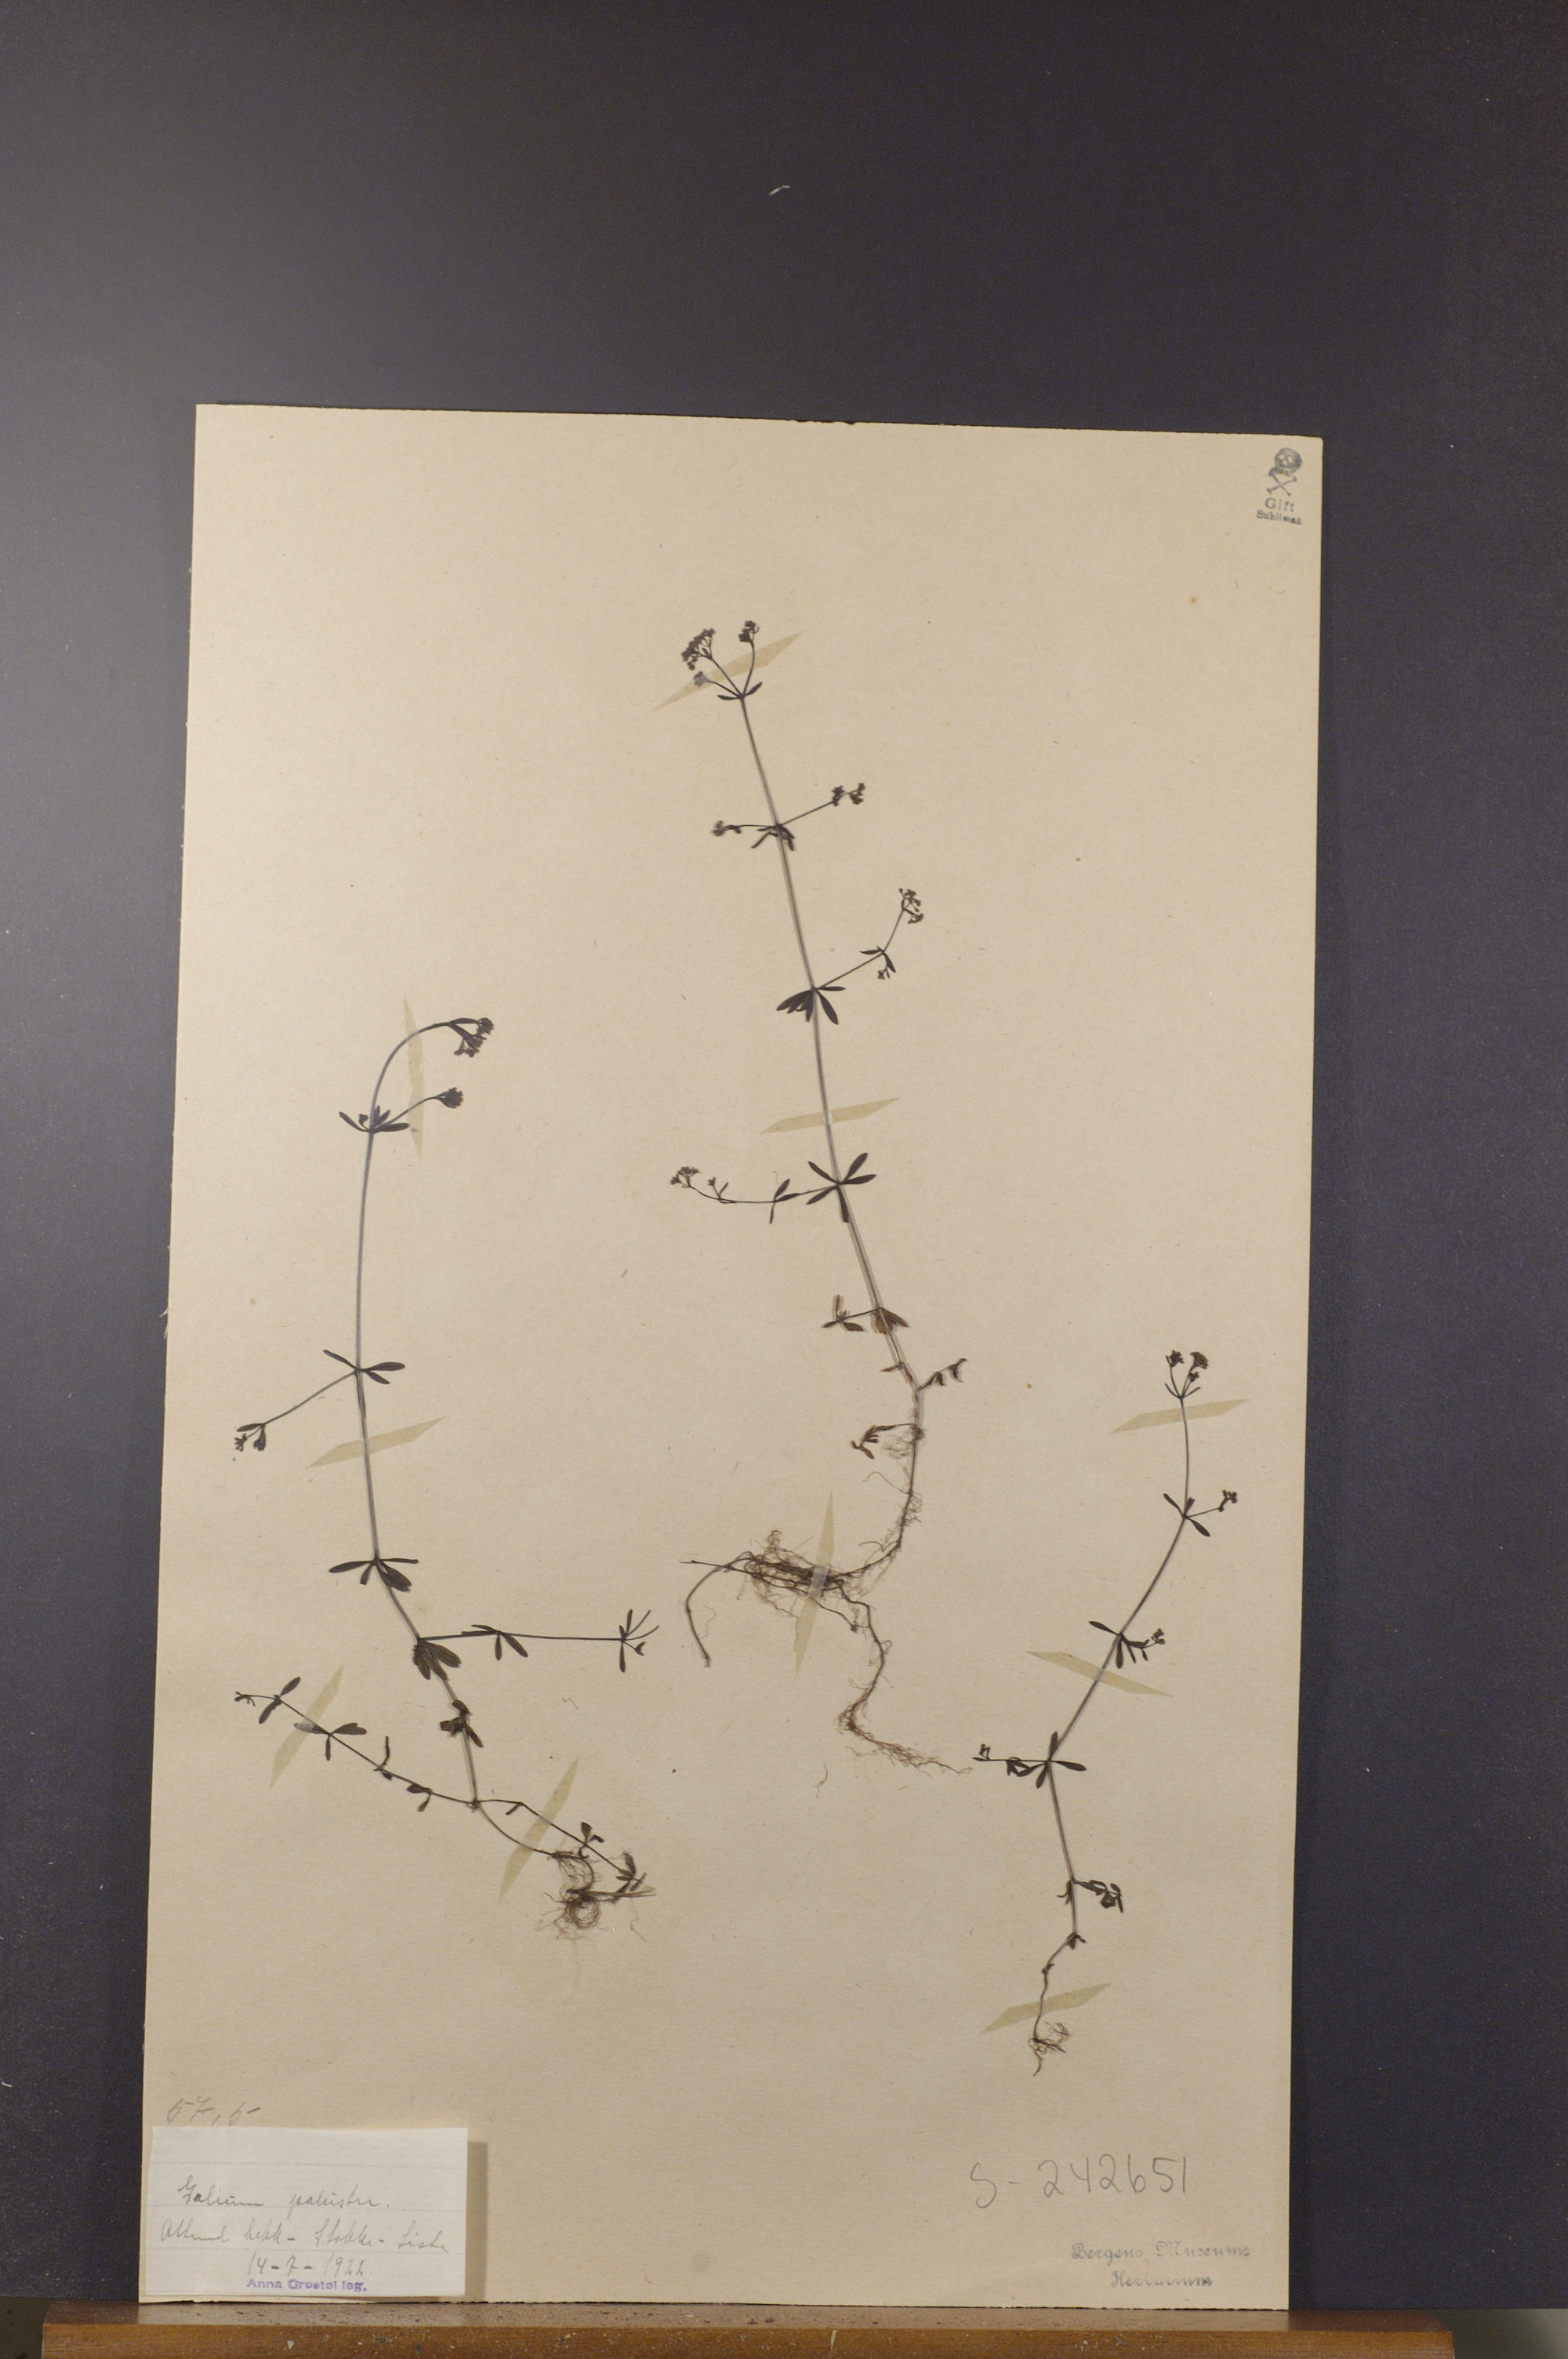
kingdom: Plantae
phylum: Tracheophyta
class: Magnoliopsida
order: Gentianales
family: Rubiaceae
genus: Galium
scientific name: Galium palustre
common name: Common marsh-bedstraw
